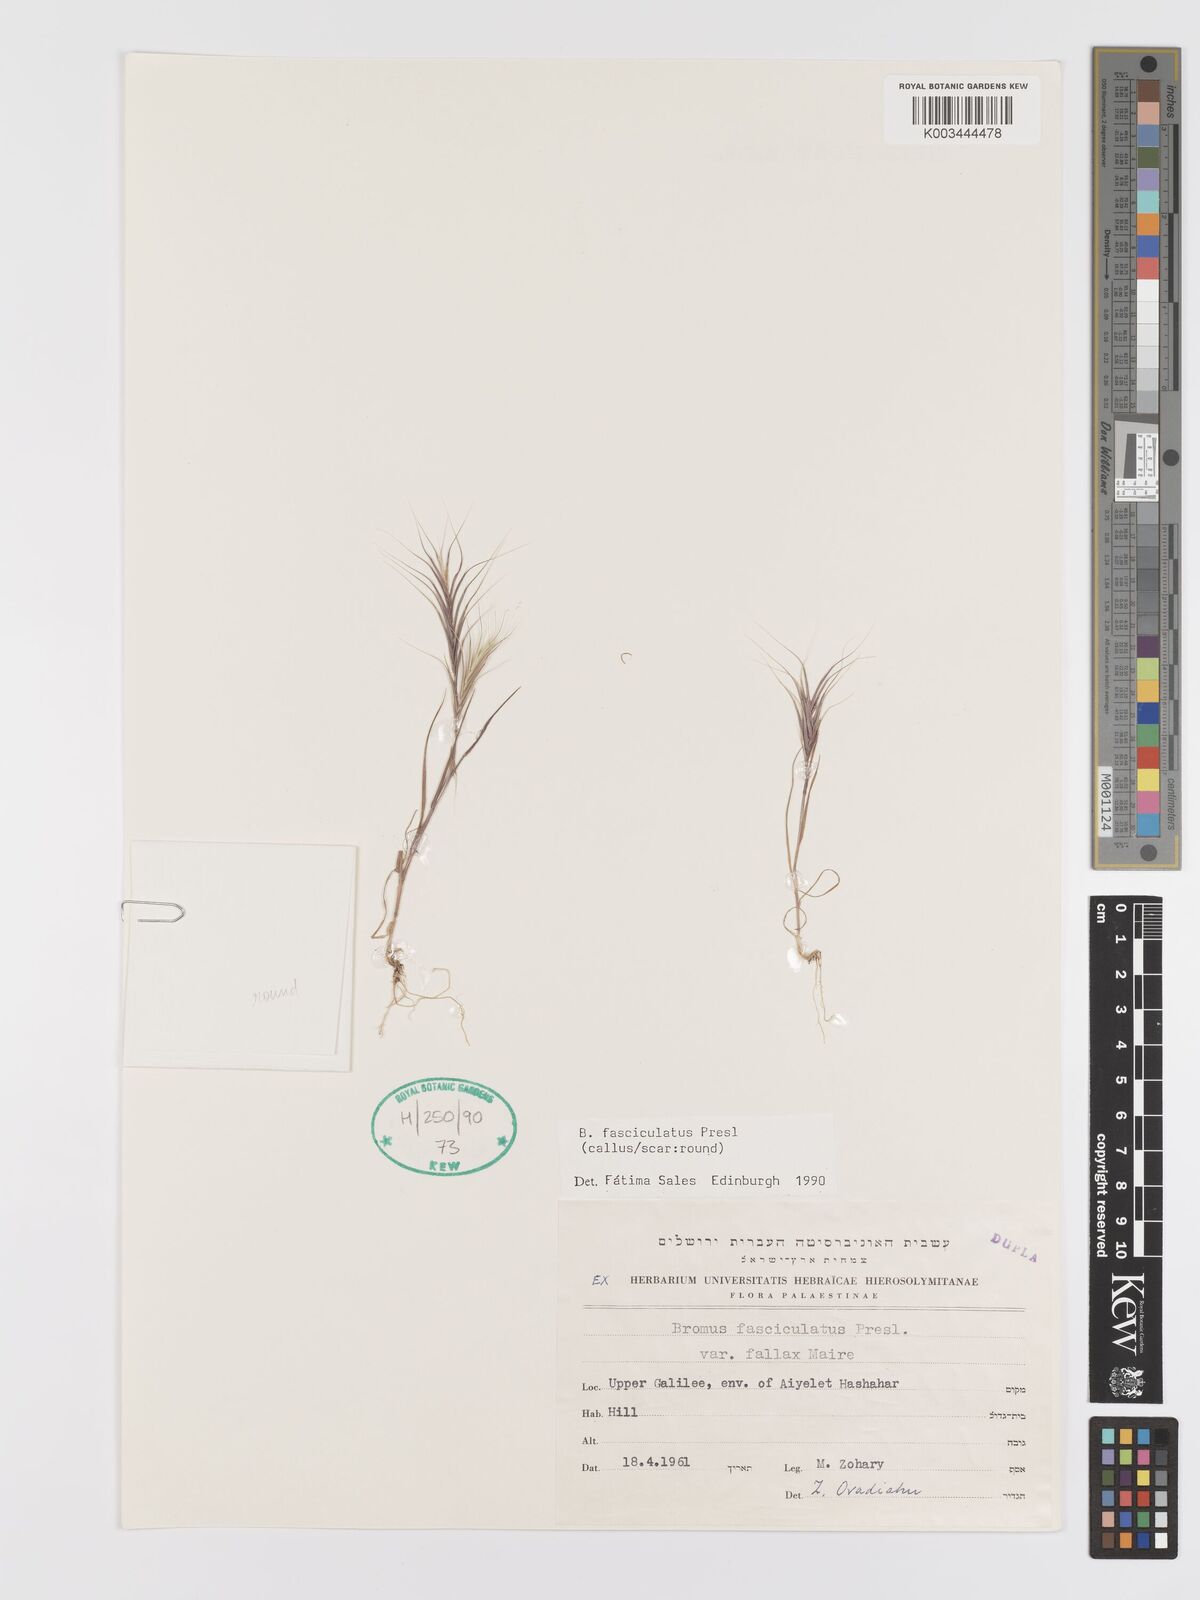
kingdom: Plantae
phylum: Tracheophyta
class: Liliopsida
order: Poales
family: Poaceae
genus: Bromus
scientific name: Bromus fasciculatus
